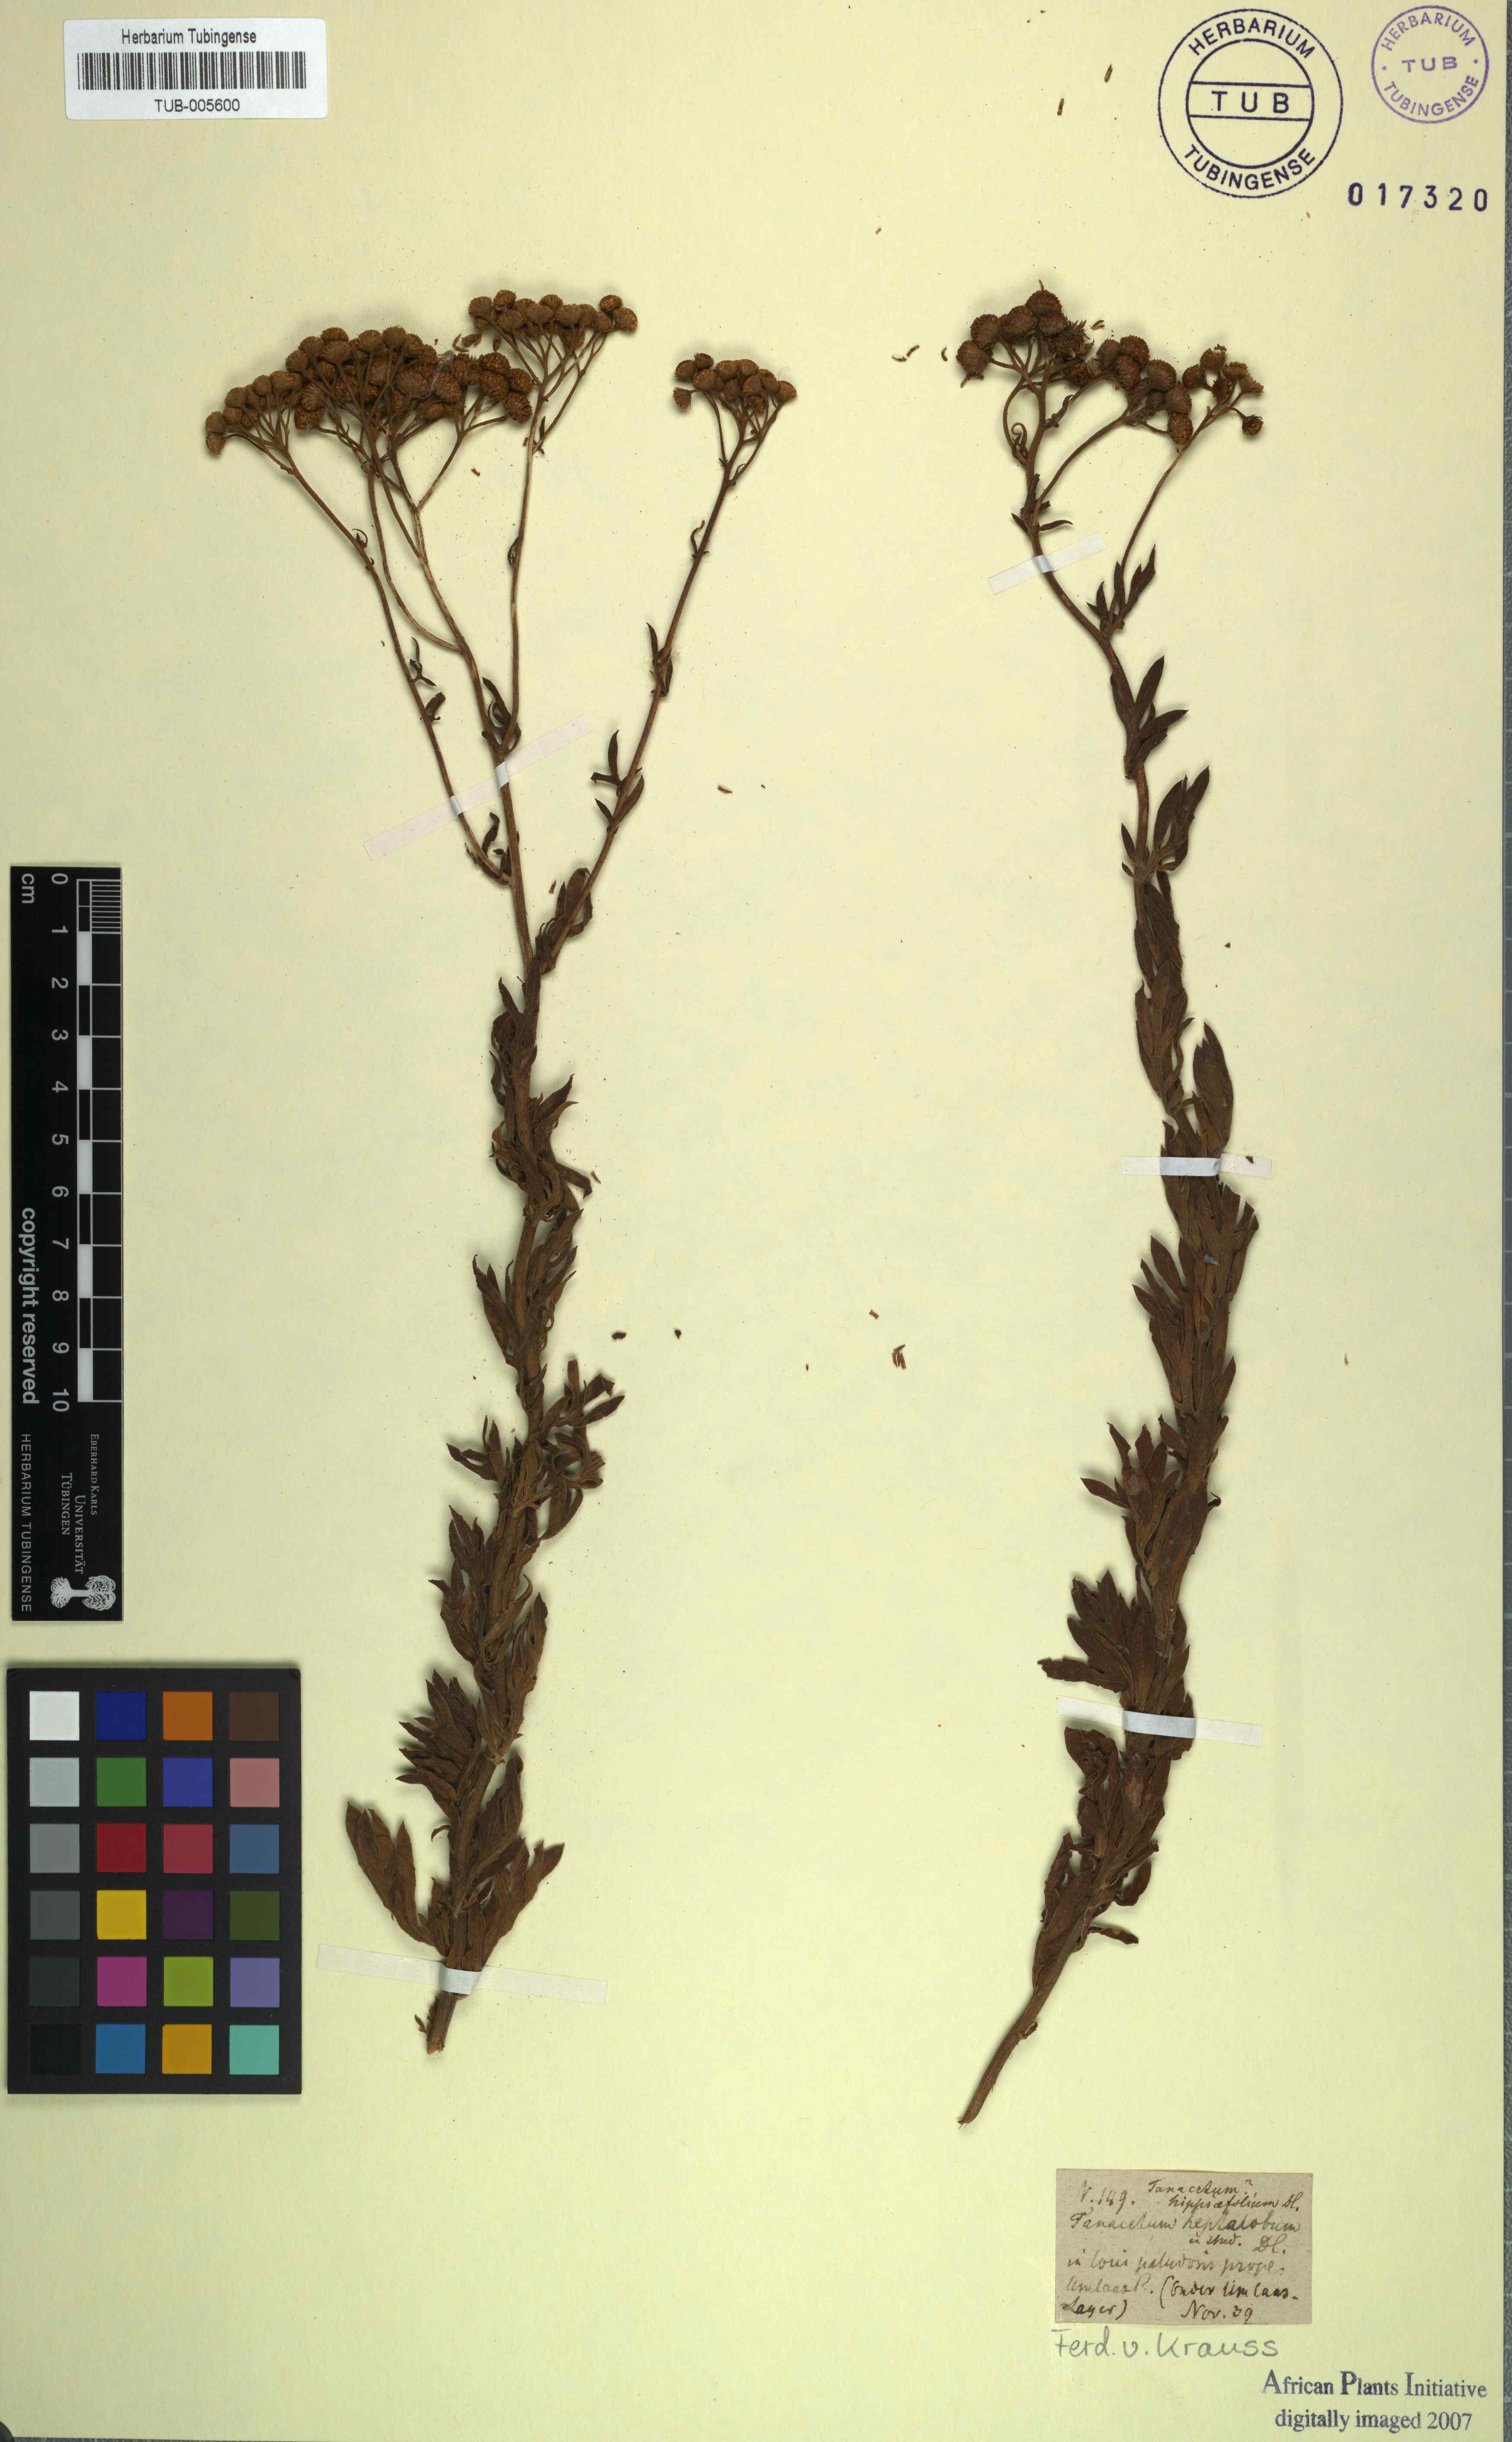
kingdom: Plantae
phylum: Tracheophyta
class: Magnoliopsida
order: Asterales
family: Asteraceae
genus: Schistostephium
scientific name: Schistostephium crataegifolium
